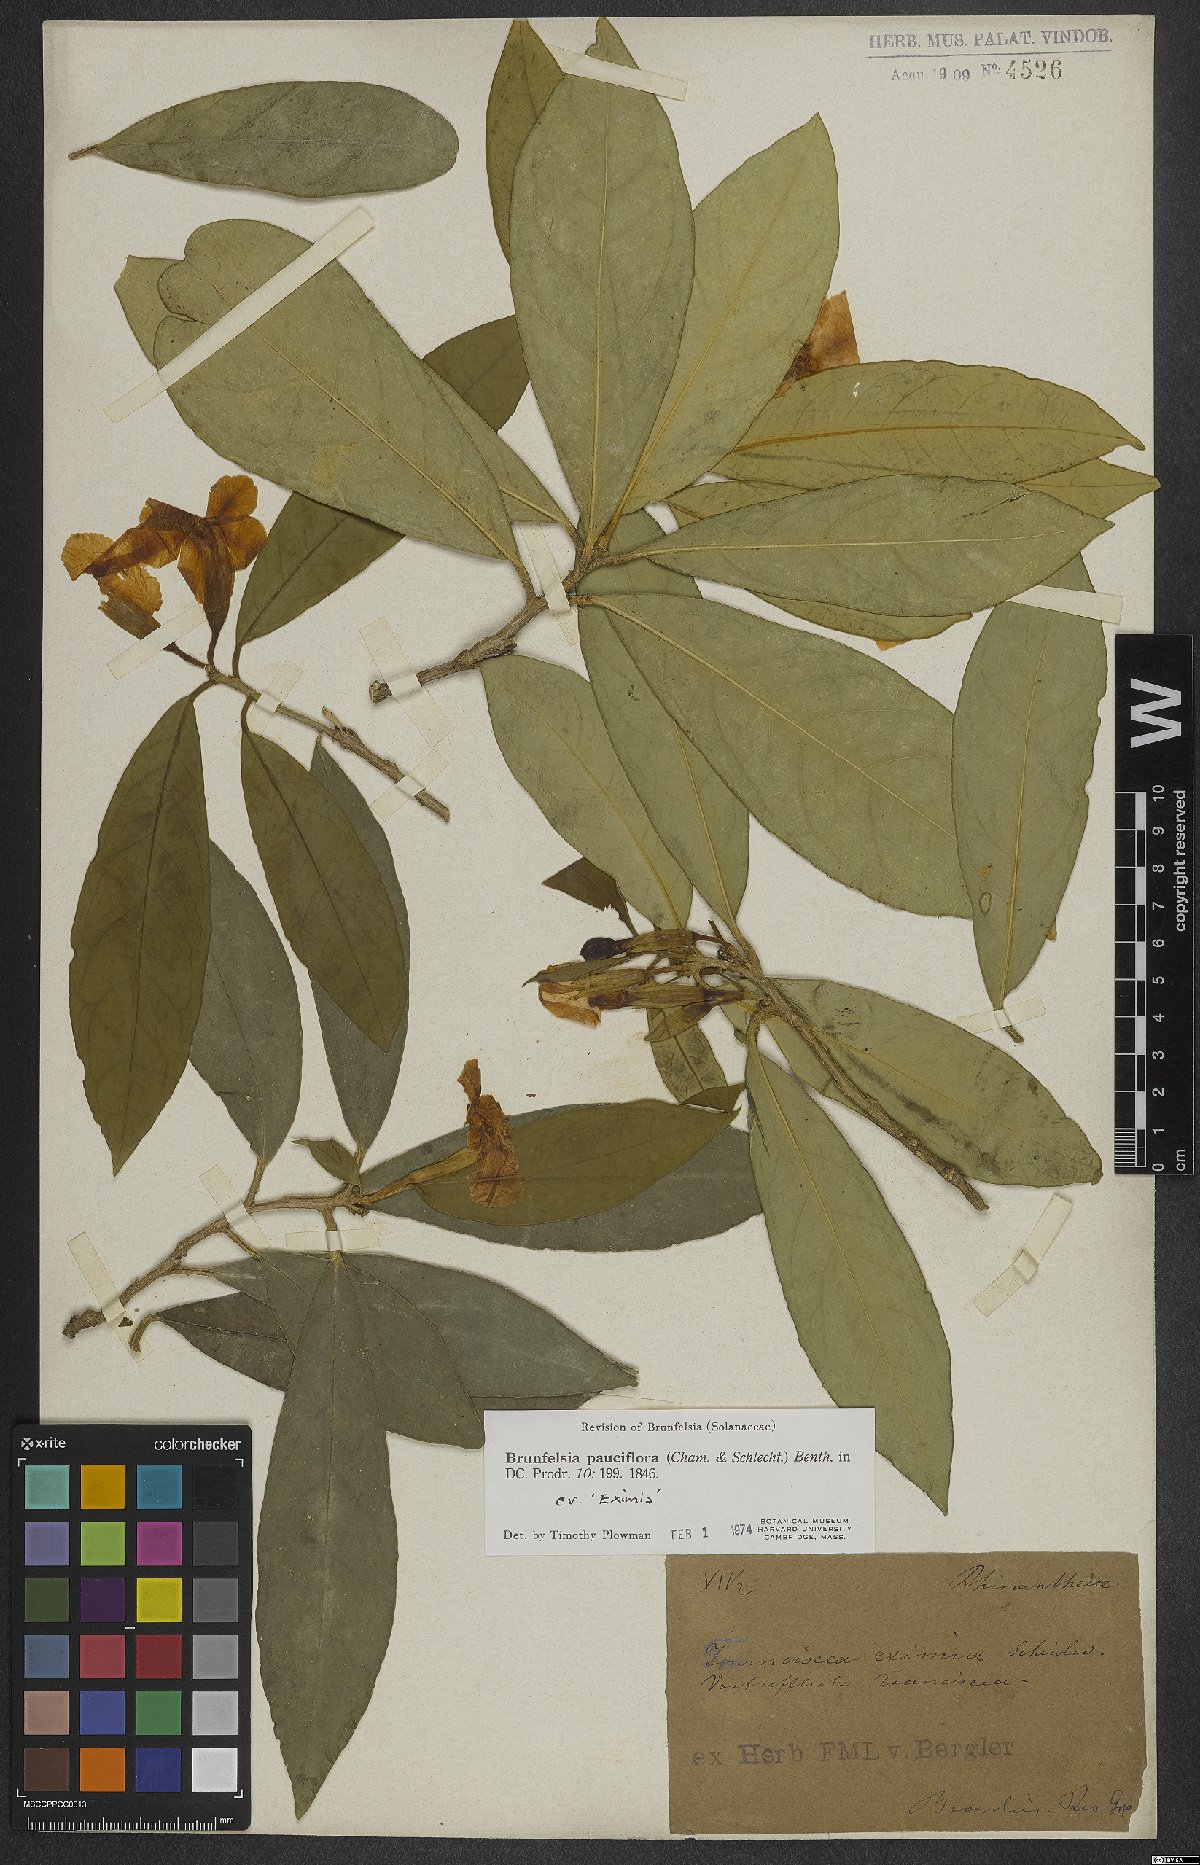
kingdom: Plantae
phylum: Tracheophyta
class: Magnoliopsida
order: Solanales
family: Solanaceae
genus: Brunfelsia
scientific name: Brunfelsia pauciflora
